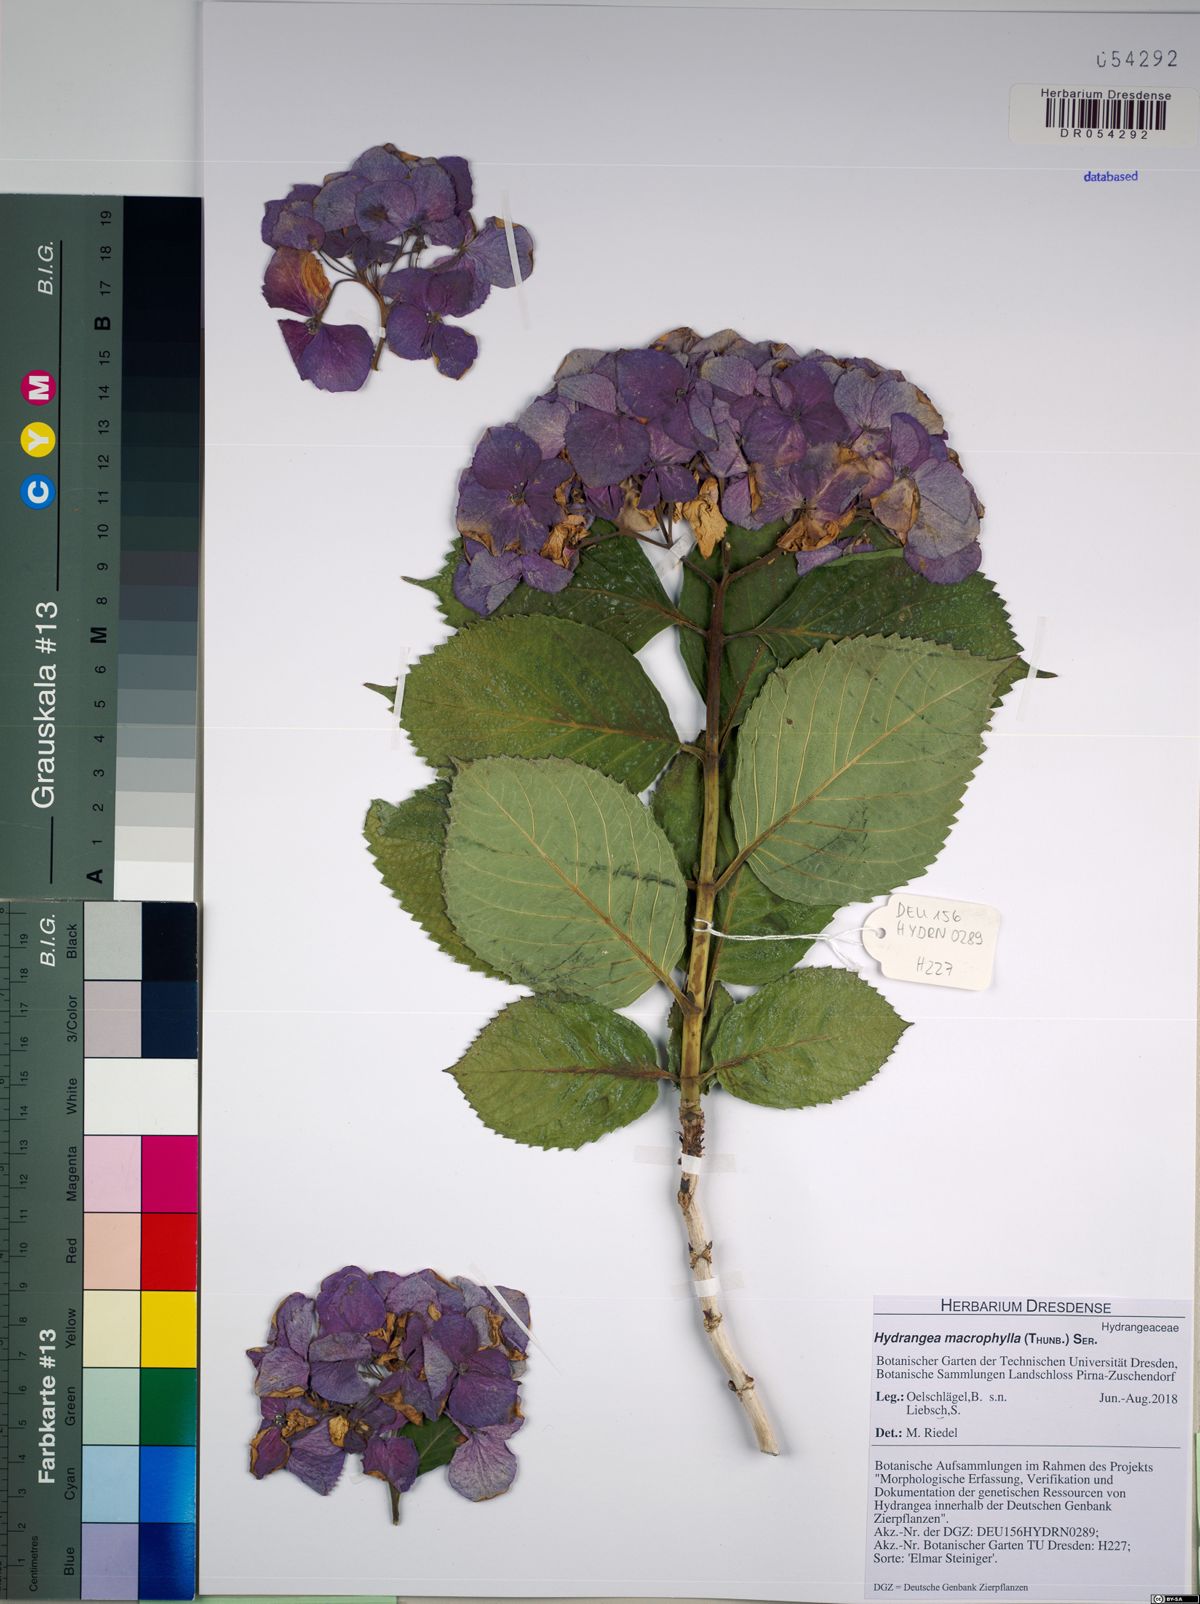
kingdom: Plantae
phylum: Tracheophyta
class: Magnoliopsida
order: Cornales
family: Hydrangeaceae
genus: Hydrangea
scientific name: Hydrangea macrophylla
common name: Hydrangea
